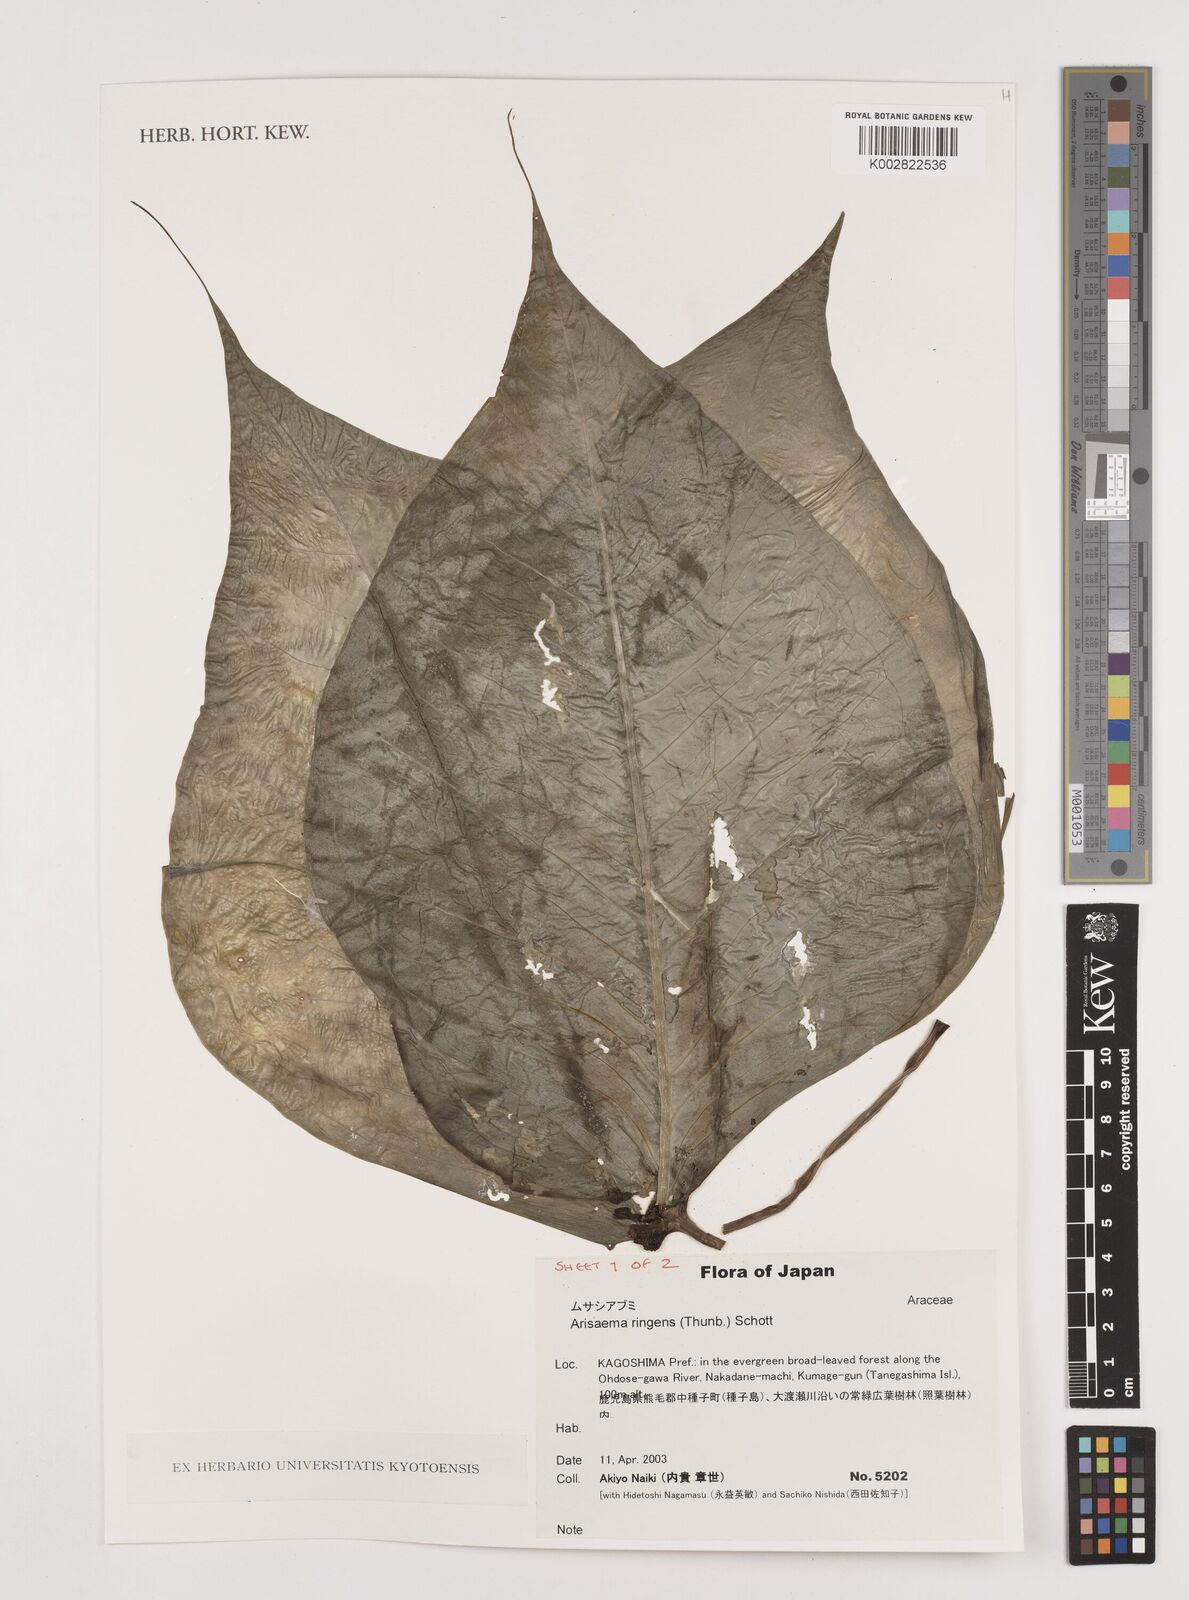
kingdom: Plantae
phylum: Tracheophyta
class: Liliopsida
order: Alismatales
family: Araceae
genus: Arisaema
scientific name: Arisaema ringens
